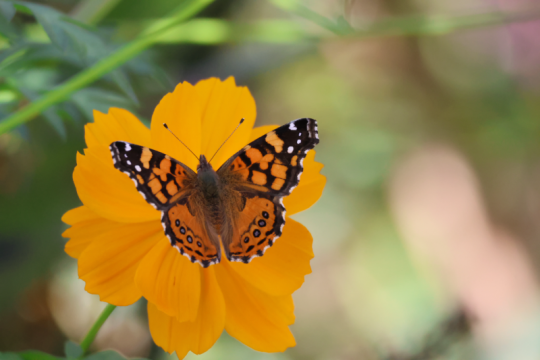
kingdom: Animalia
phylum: Arthropoda
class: Insecta
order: Lepidoptera
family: Nymphalidae
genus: Vanessa
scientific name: Vanessa annabella
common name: West Coast Lady
